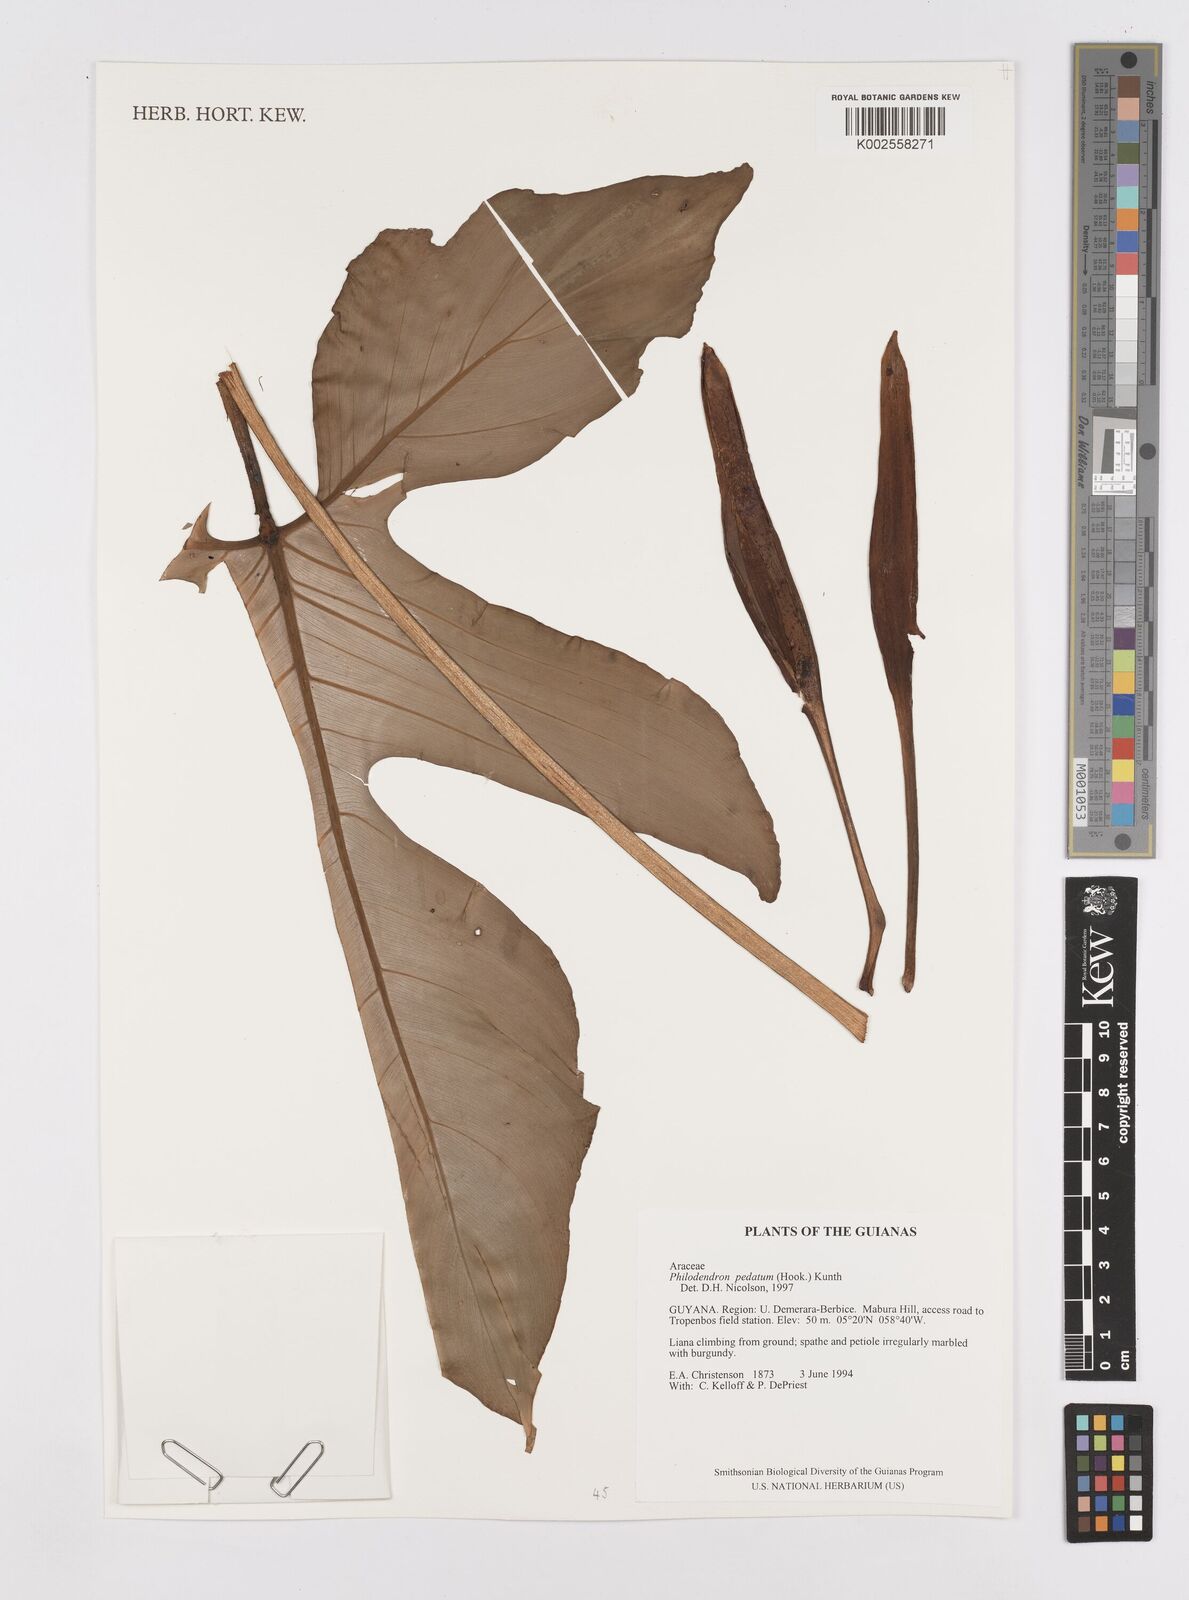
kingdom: Plantae
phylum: Tracheophyta
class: Liliopsida
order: Alismatales
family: Araceae
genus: Philodendron
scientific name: Philodendron pedatum
